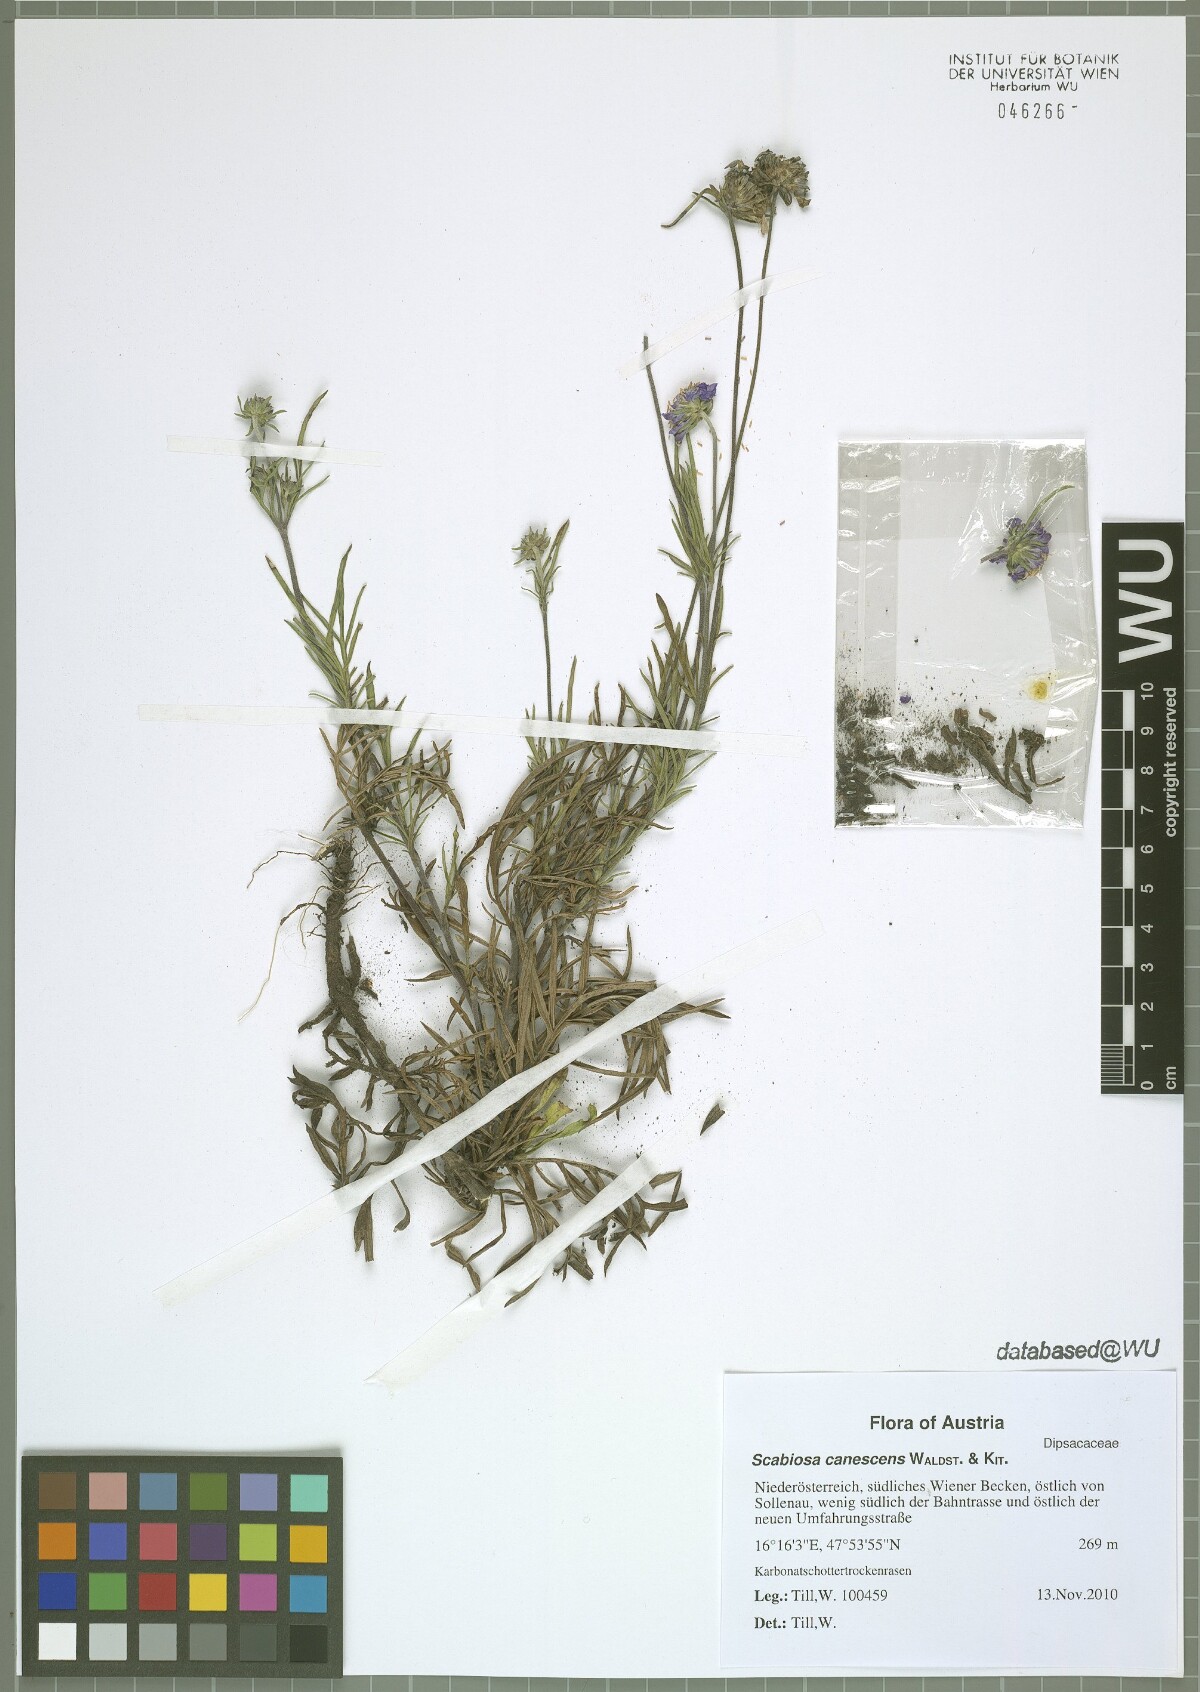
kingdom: Plantae
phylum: Tracheophyta
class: Magnoliopsida
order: Dipsacales
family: Caprifoliaceae
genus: Scabiosa
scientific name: Scabiosa canescens
